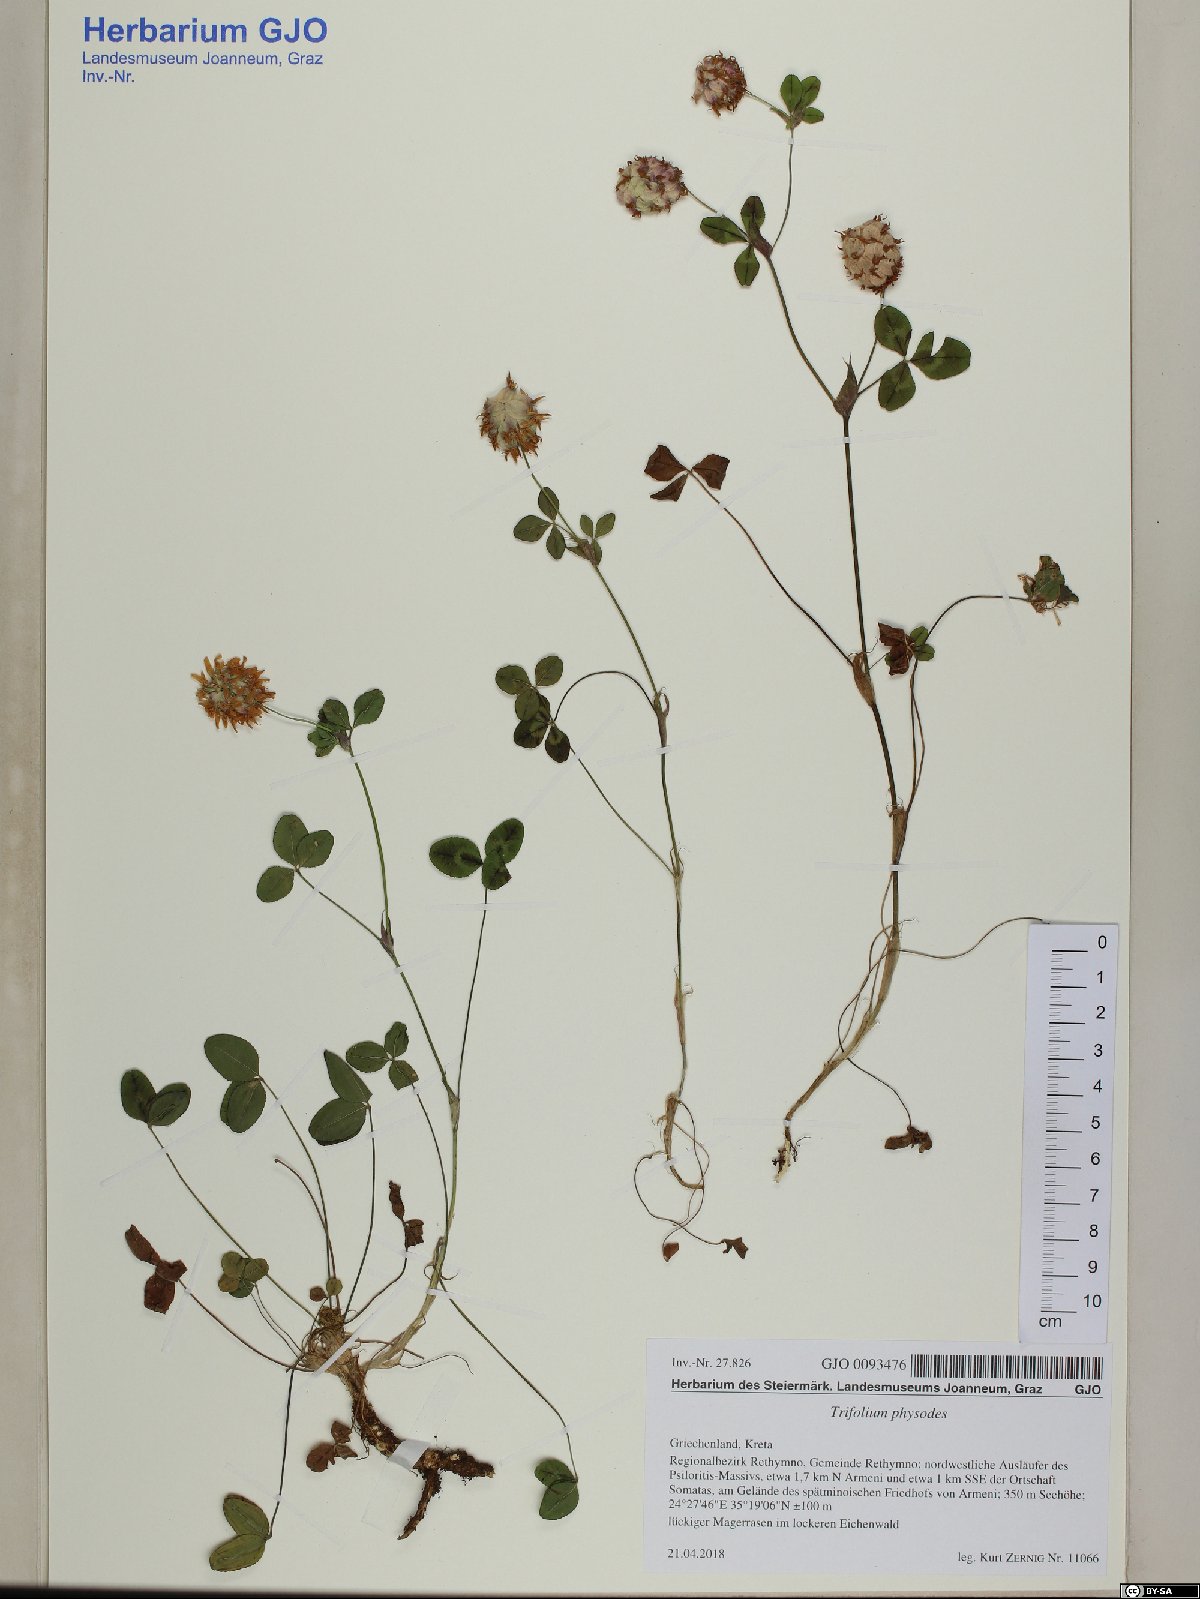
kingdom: Plantae
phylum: Tracheophyta
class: Magnoliopsida
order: Fabales
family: Fabaceae
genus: Trifolium
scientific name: Trifolium physodes
